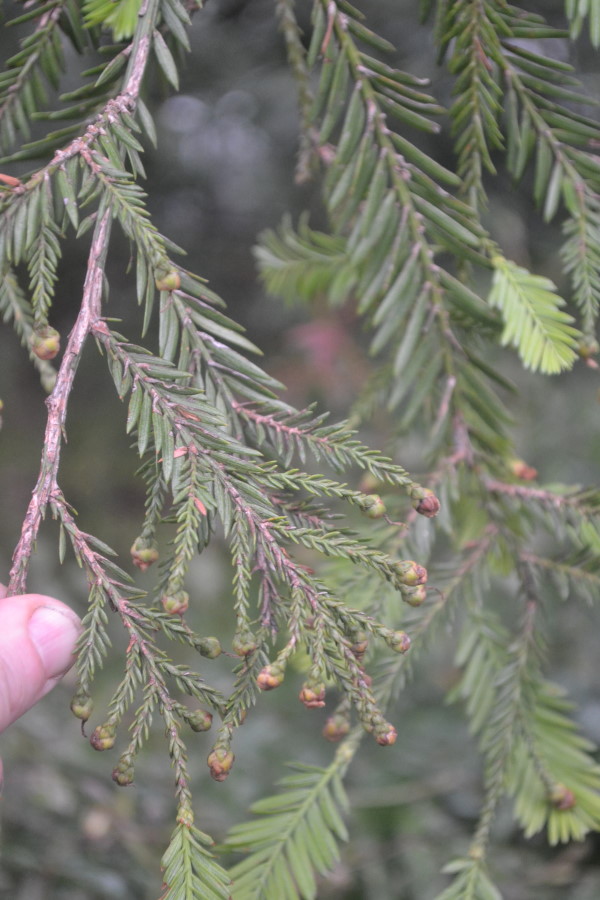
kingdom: Plantae
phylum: Tracheophyta
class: Pinopsida
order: Pinales
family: Taxaceae
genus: Taxus
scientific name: Taxus baccata
